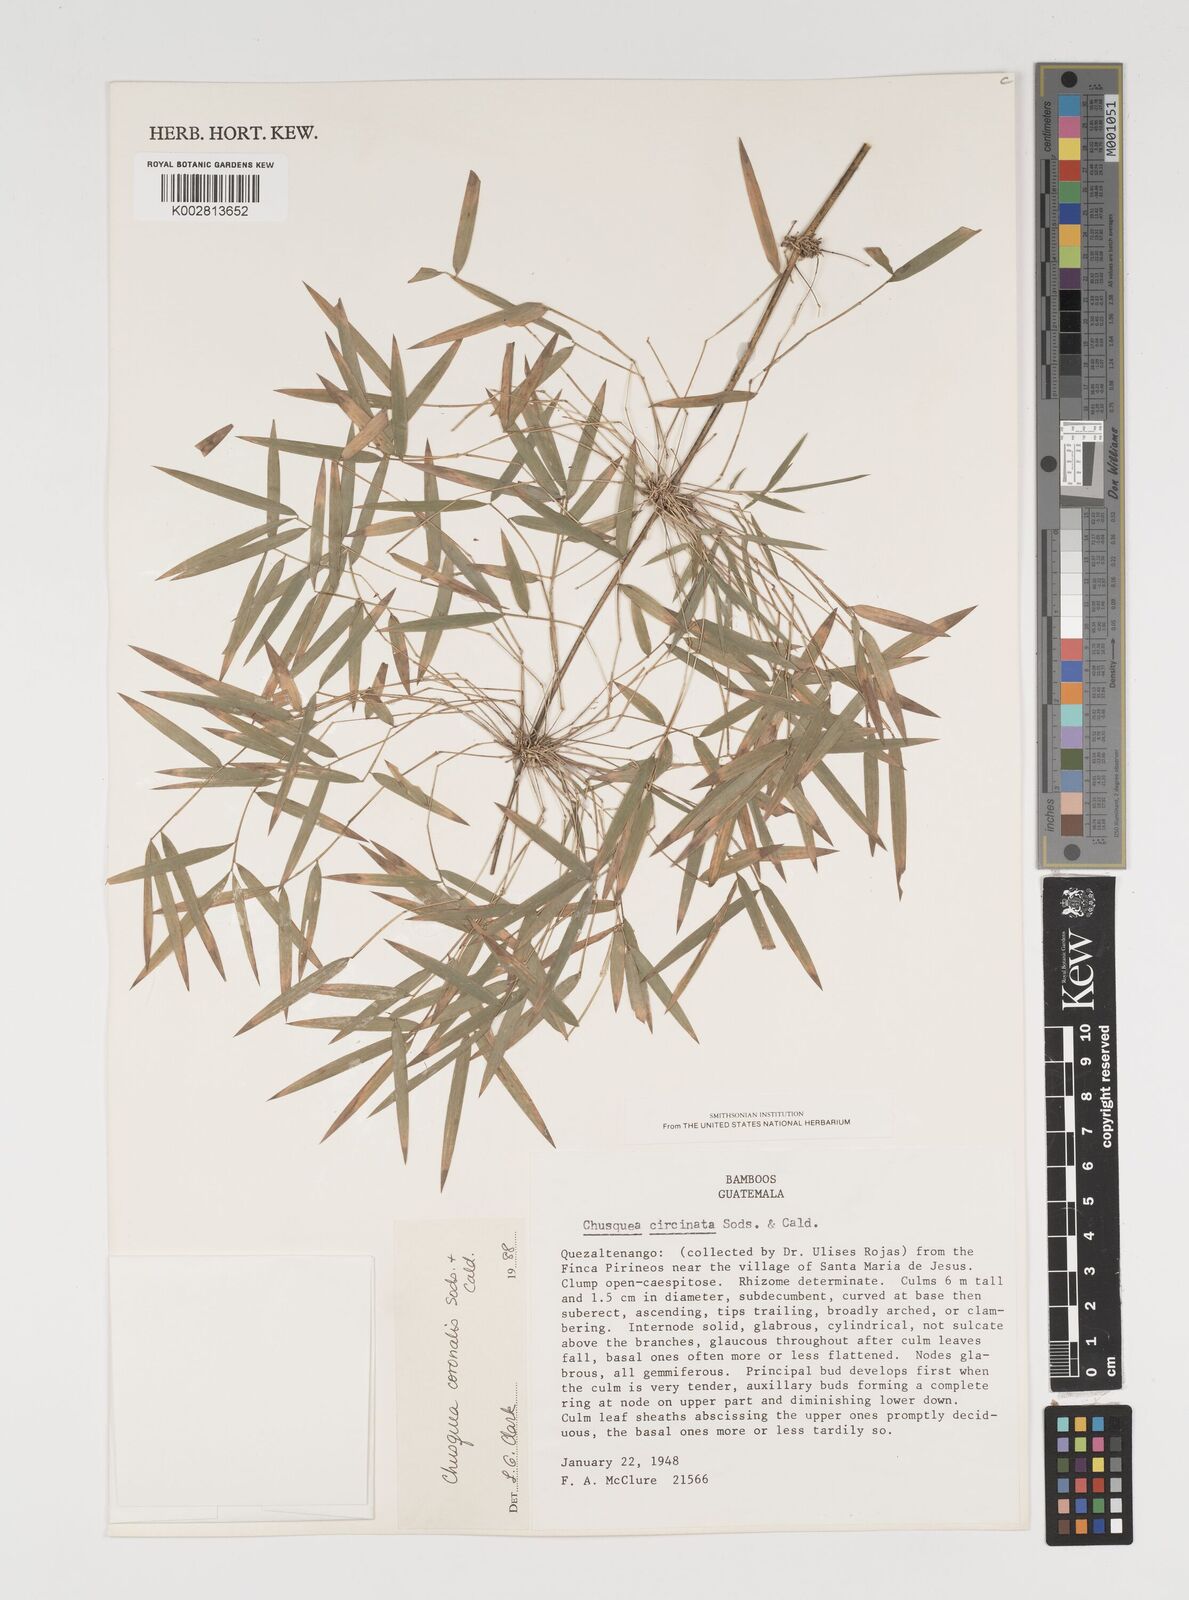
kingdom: Plantae
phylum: Tracheophyta
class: Liliopsida
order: Poales
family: Poaceae
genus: Chusquea
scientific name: Chusquea coronalis
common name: Machris bamboo
